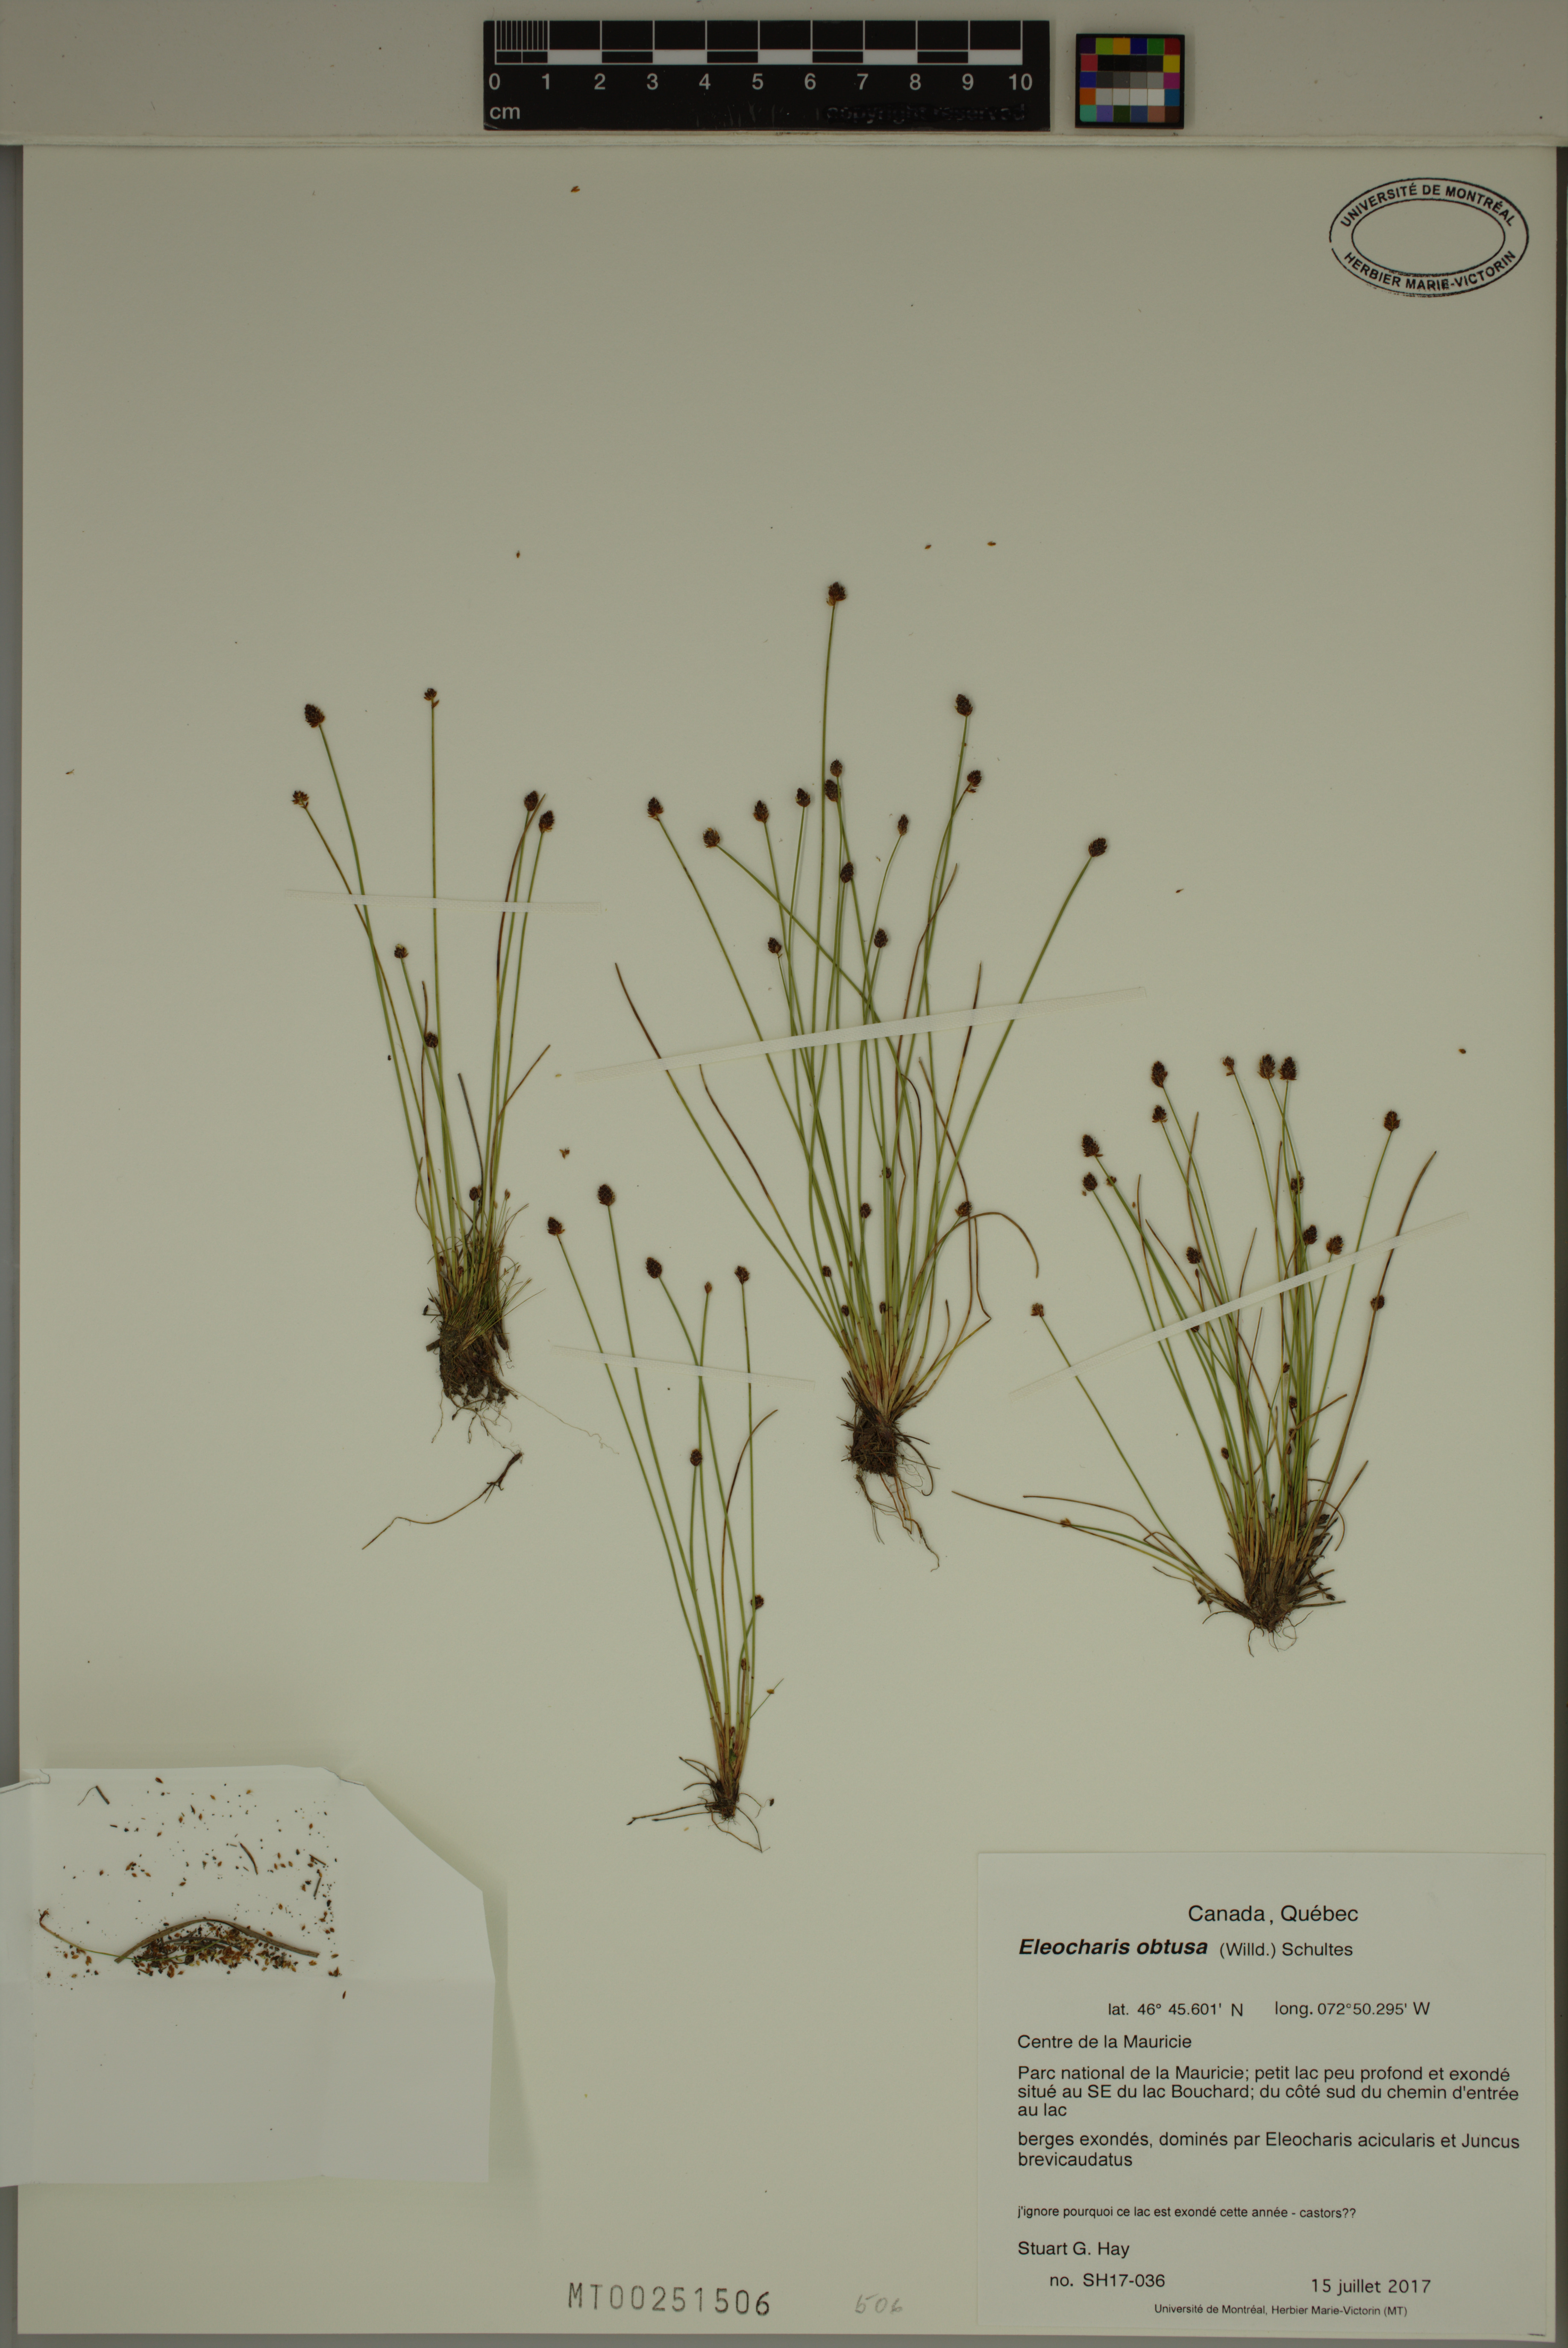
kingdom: Plantae
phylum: Tracheophyta
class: Liliopsida
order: Poales
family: Cyperaceae
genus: Eleocharis
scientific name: Eleocharis obtusa
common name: Blunt spikerush
